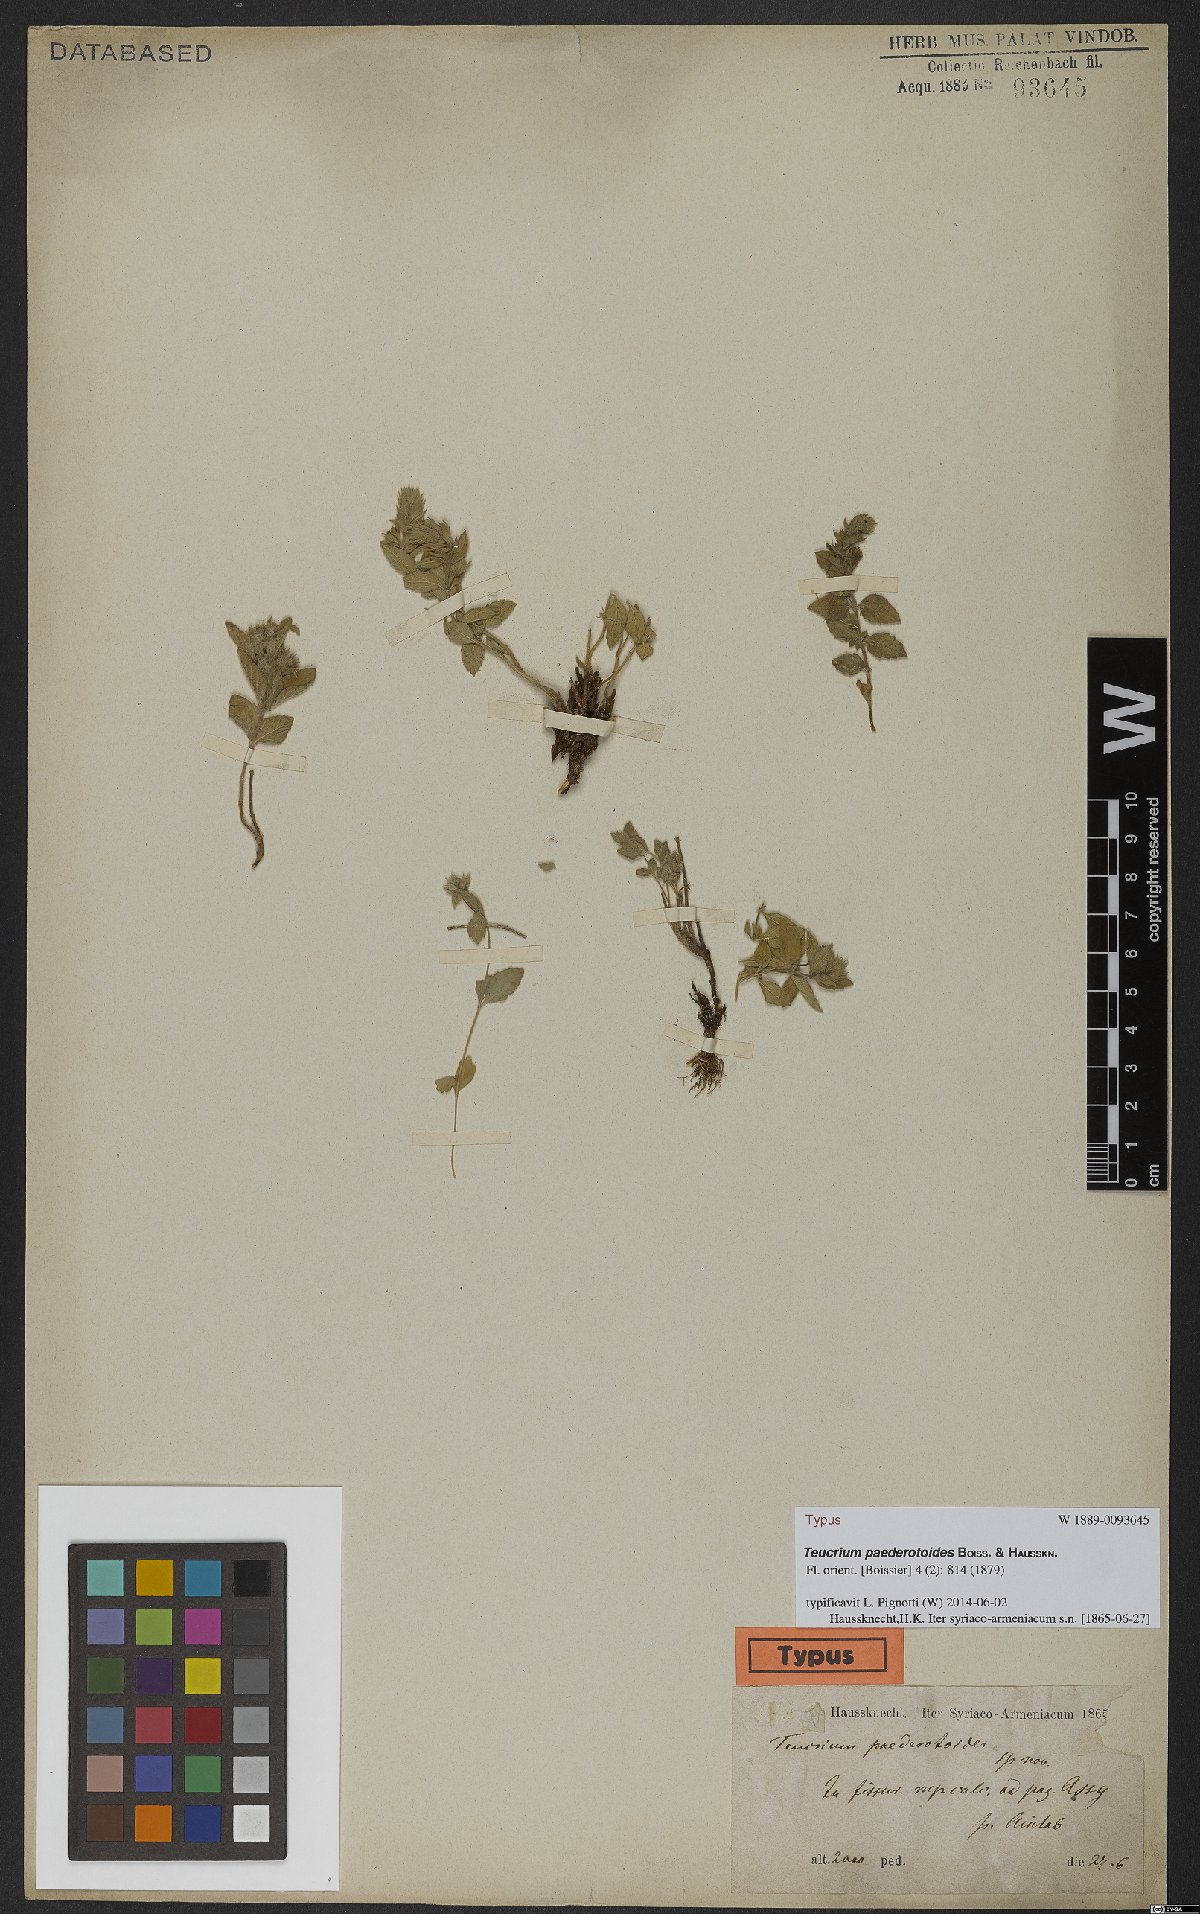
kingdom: Plantae
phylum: Tracheophyta
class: Magnoliopsida
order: Lamiales
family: Lamiaceae
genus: Teucrium
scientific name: Teucrium paederotoides
